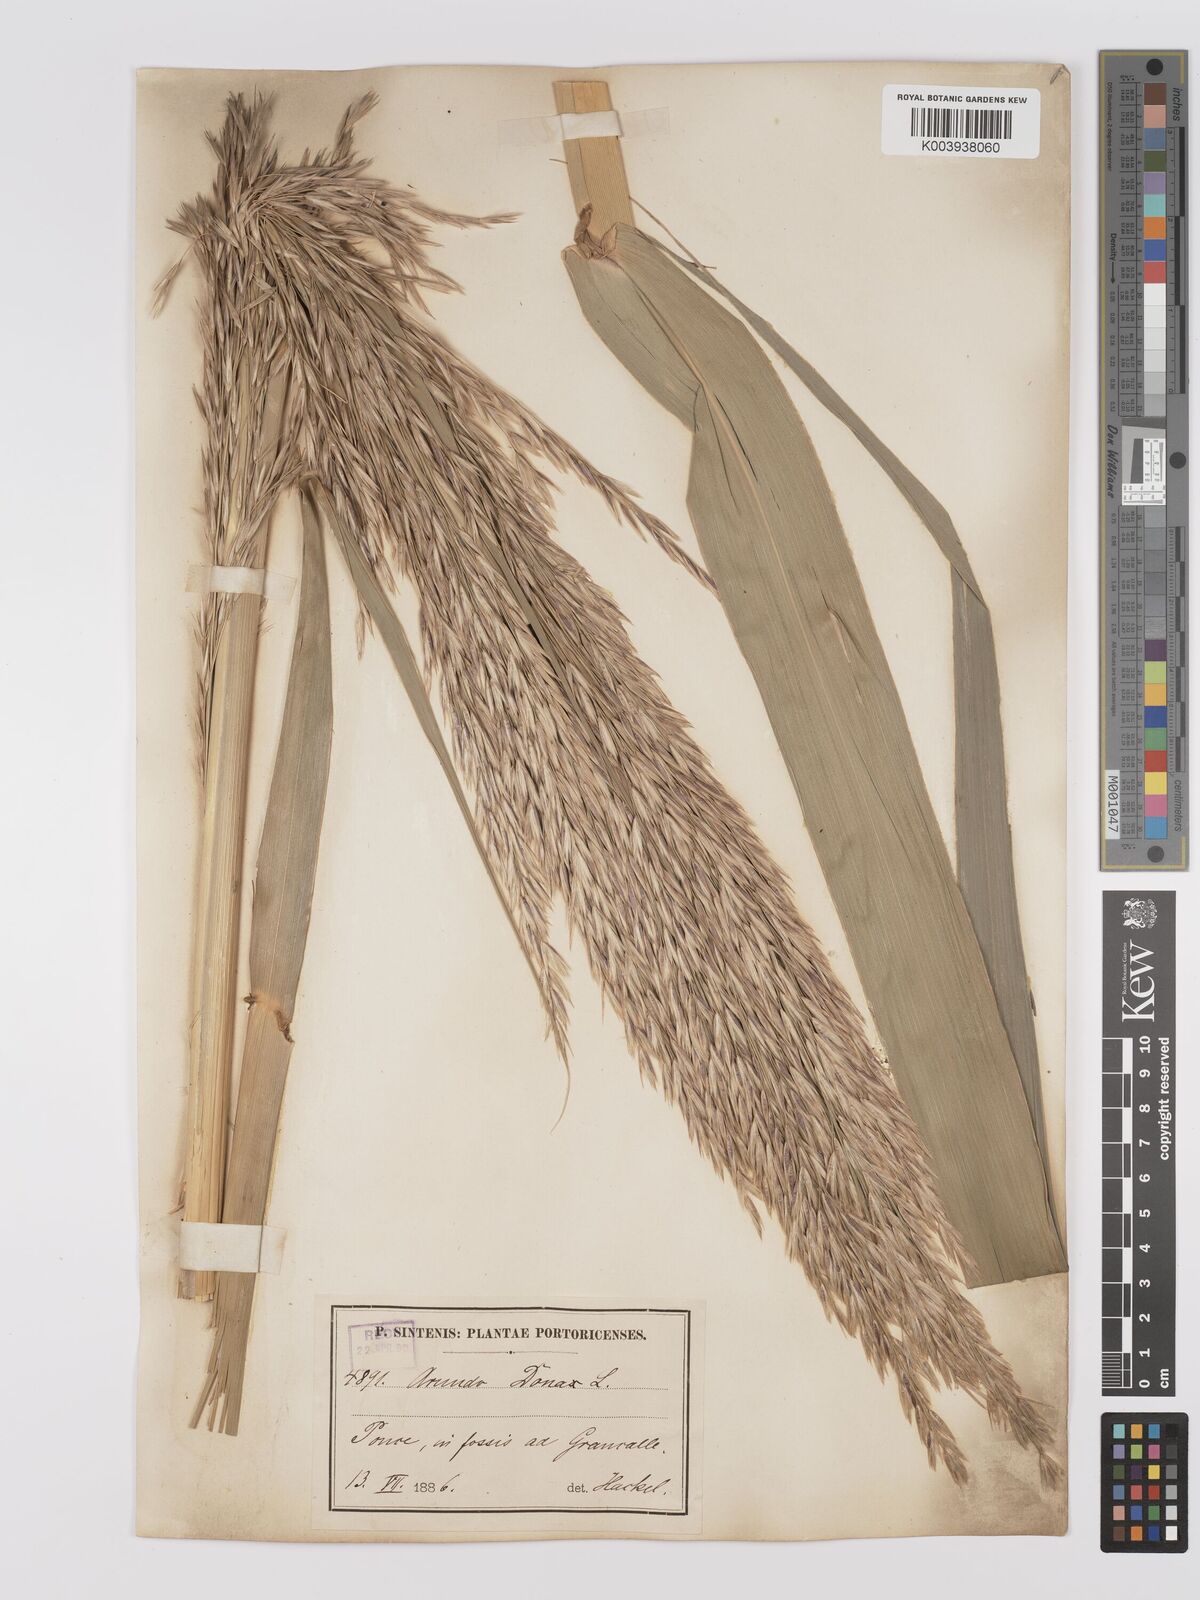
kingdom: Plantae
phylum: Tracheophyta
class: Liliopsida
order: Poales
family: Poaceae
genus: Arundo
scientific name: Arundo donax
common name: Giant reed
